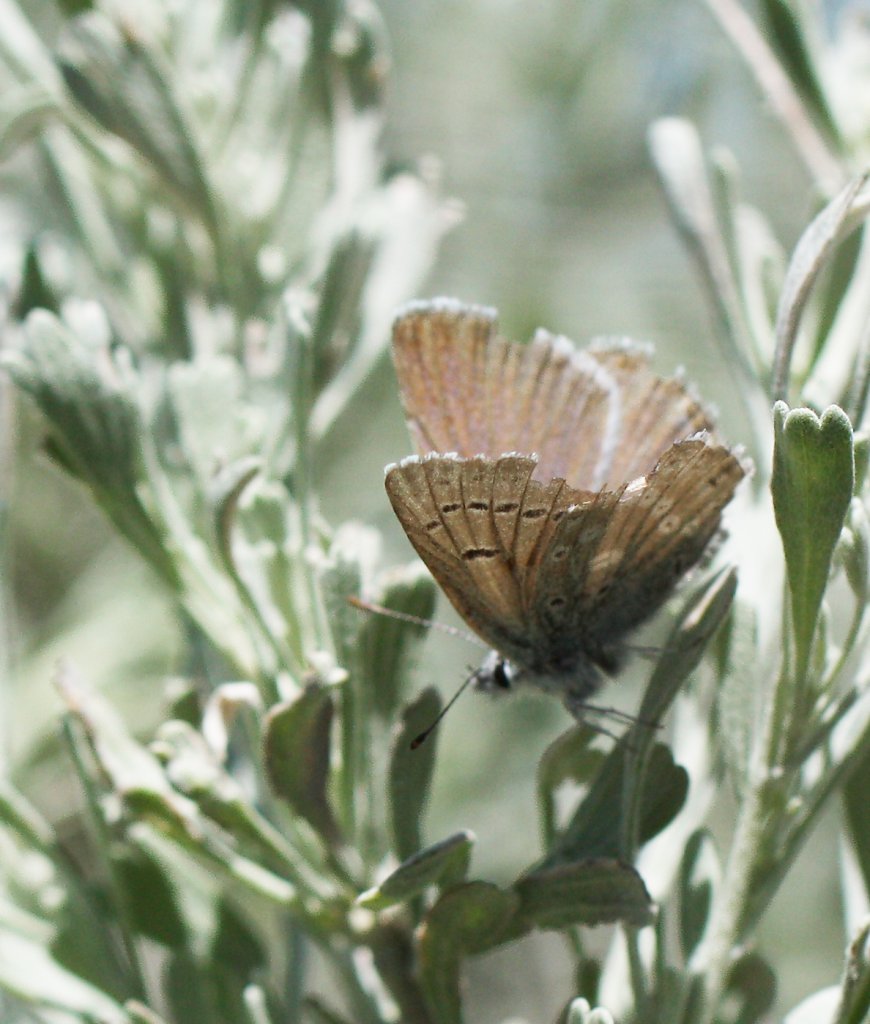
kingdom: Animalia
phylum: Arthropoda
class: Insecta
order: Lepidoptera
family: Lycaenidae
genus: Lycaena
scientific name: Lycaena heteronea
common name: Blue Copper
